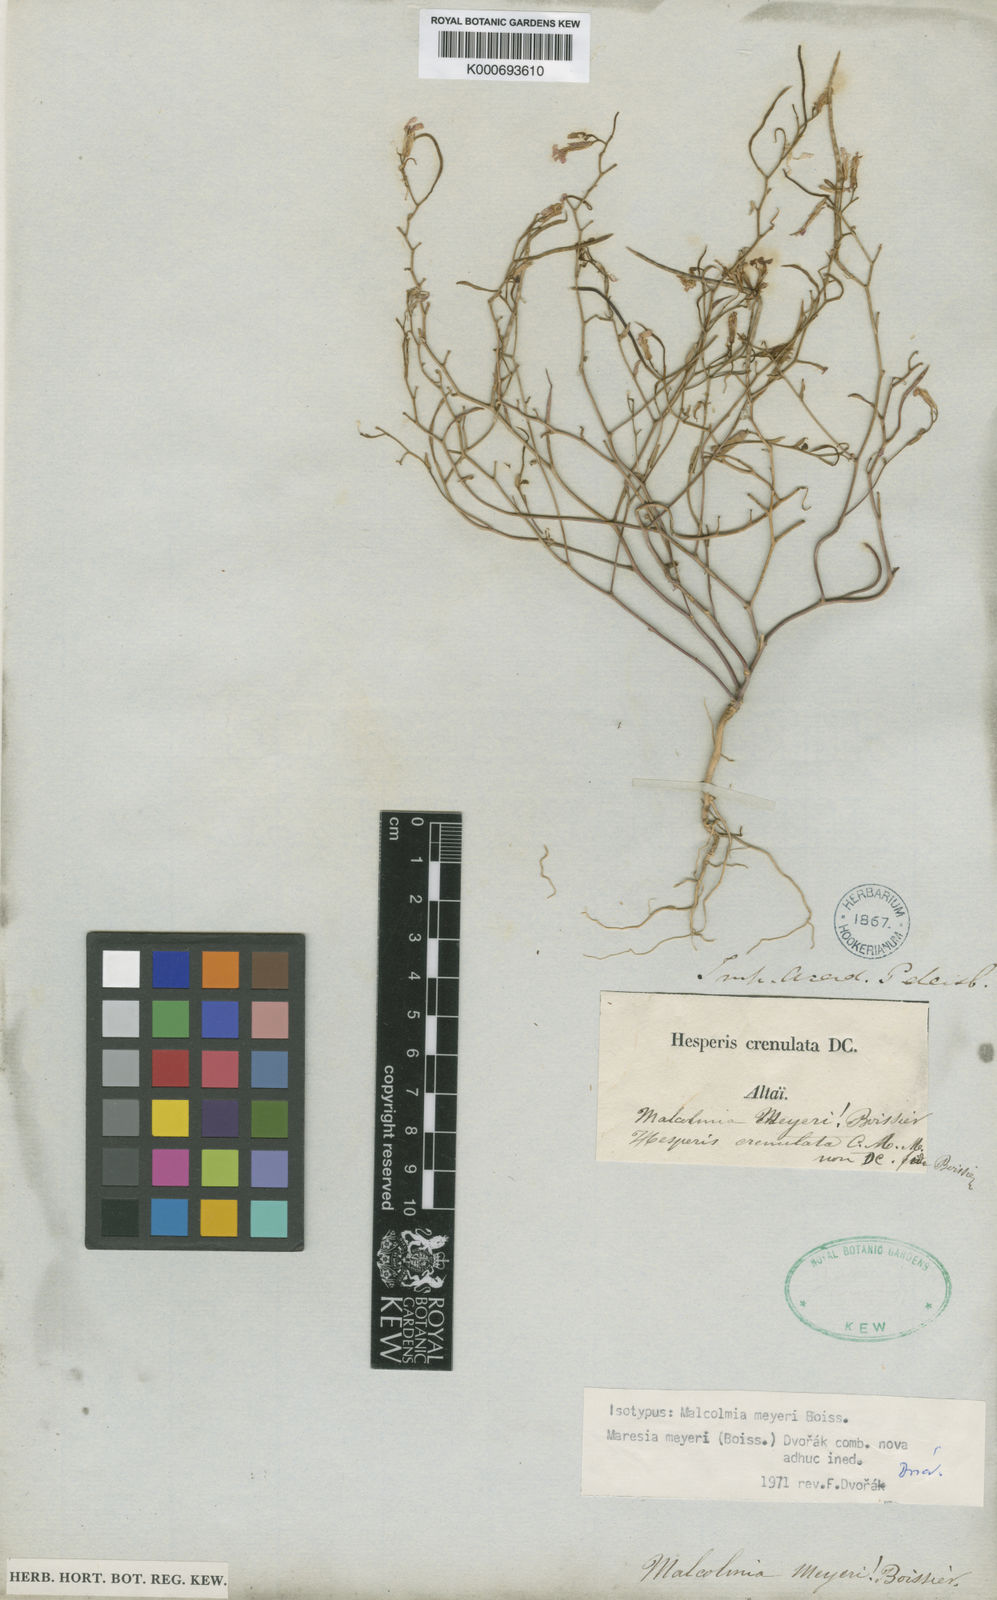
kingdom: Plantae
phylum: Tracheophyta
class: Magnoliopsida
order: Brassicales
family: Brassicaceae
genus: Zuvanda
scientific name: Zuvanda meyeri
